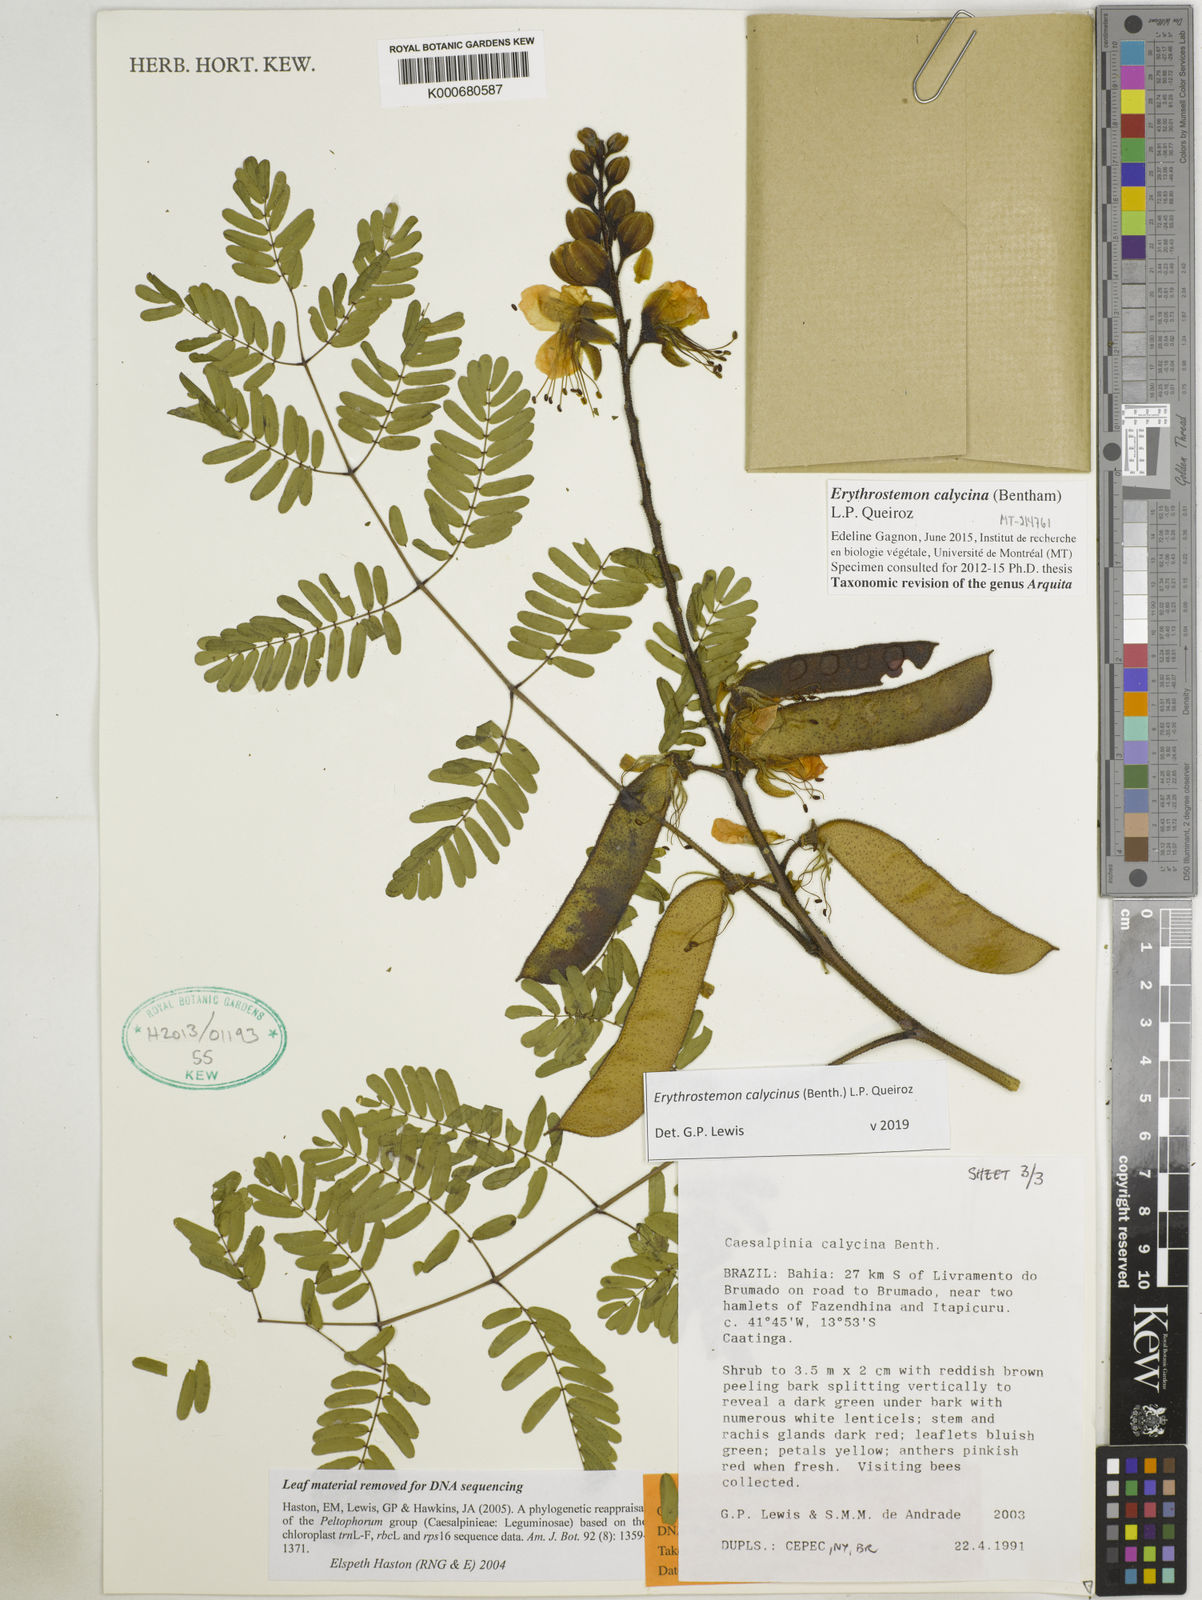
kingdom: Plantae
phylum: Tracheophyta
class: Magnoliopsida
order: Fabales
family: Fabaceae
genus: Erythrostemon
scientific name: Erythrostemon calycinus
